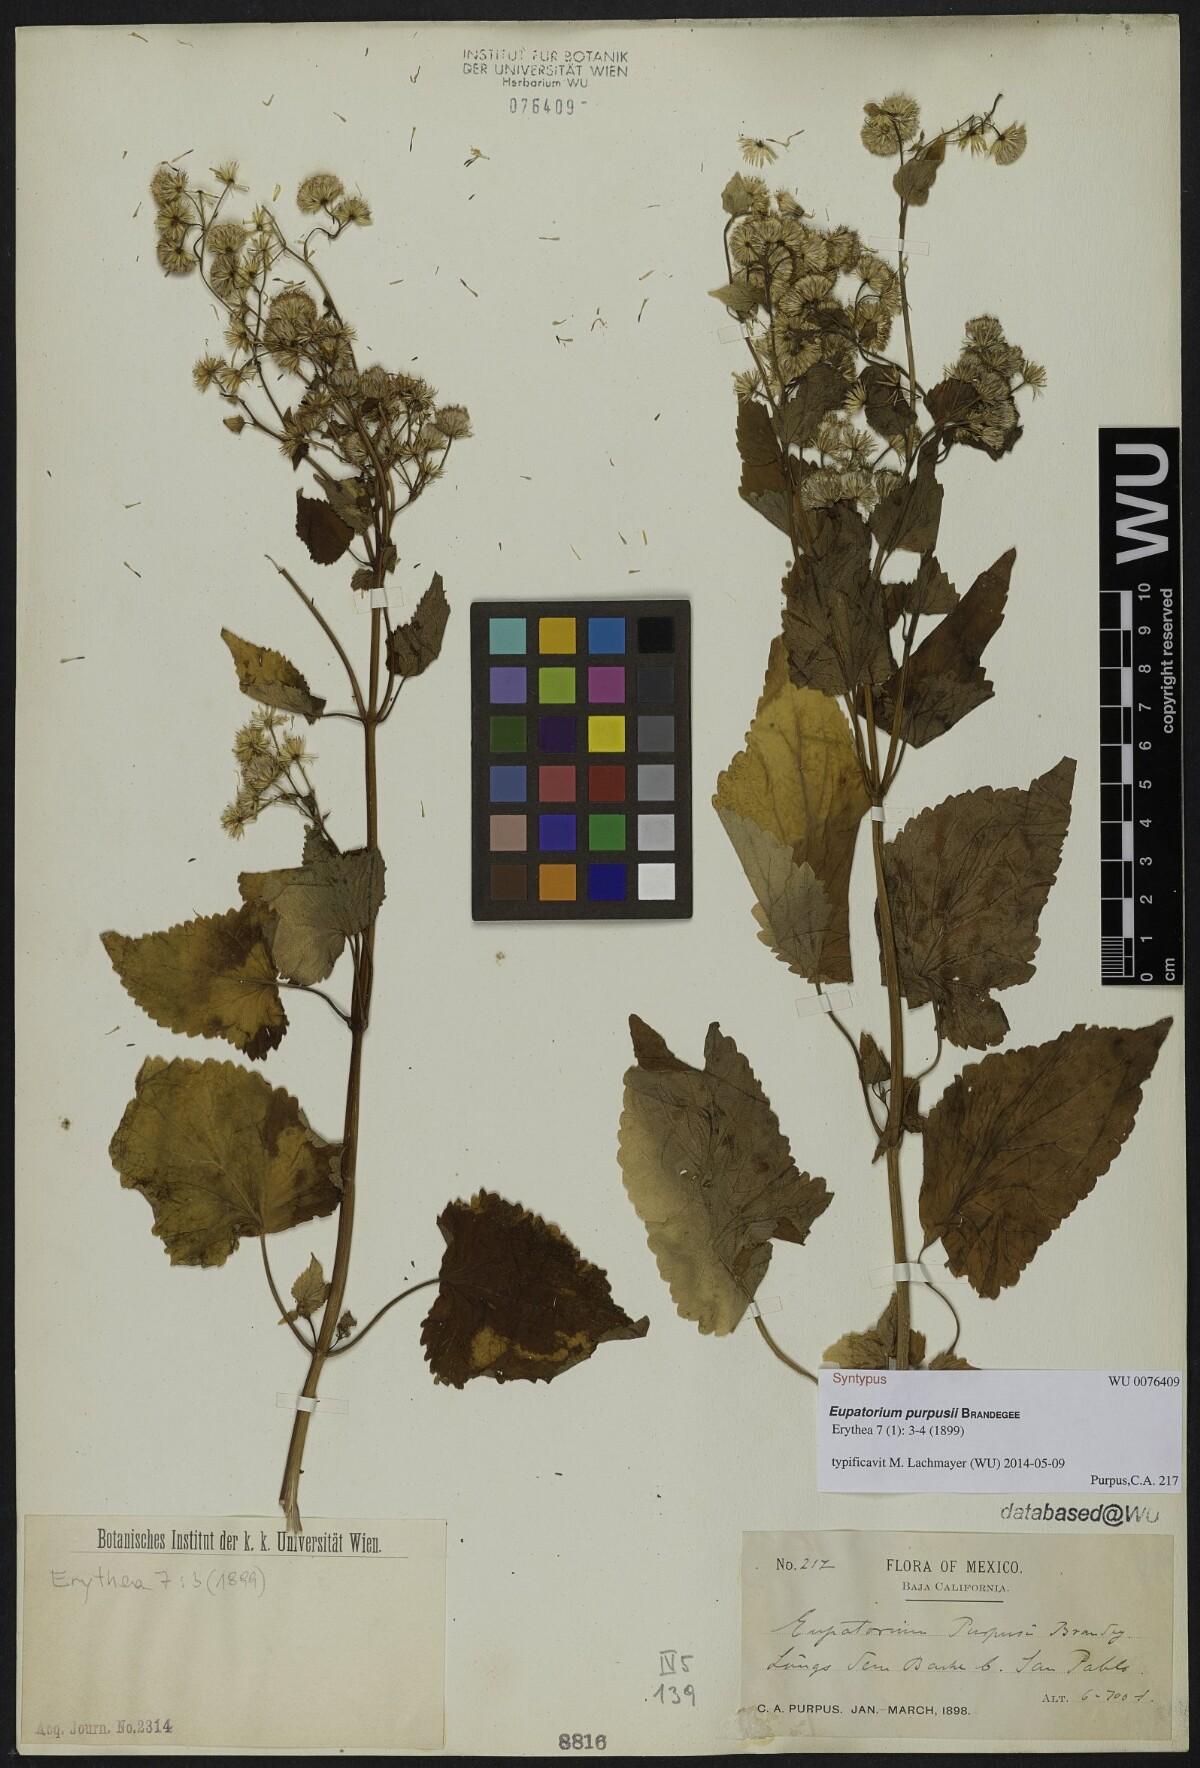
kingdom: Plantae
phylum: Tracheophyta
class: Magnoliopsida
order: Asterales
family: Asteraceae
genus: Ageratina
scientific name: Ageratina grandifolia
